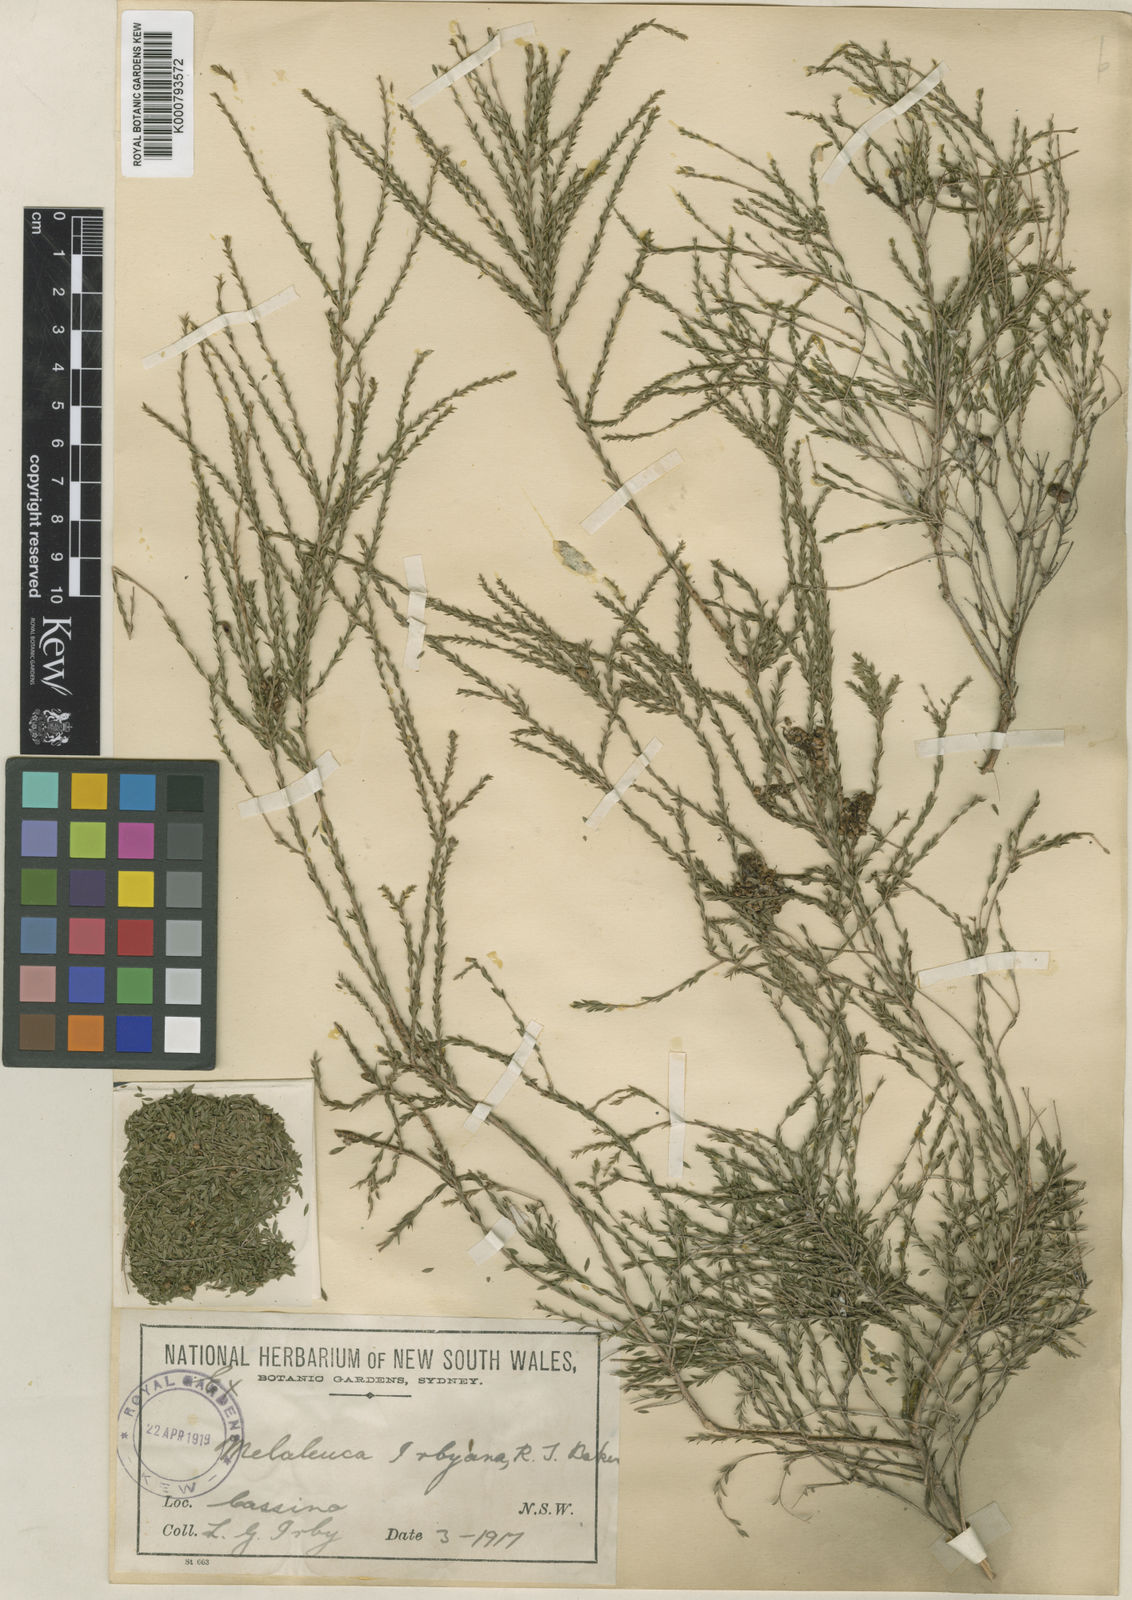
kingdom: Plantae
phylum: Tracheophyta
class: Magnoliopsida
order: Myrtales
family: Myrtaceae
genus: Melaleuca
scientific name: Melaleuca irbyana
